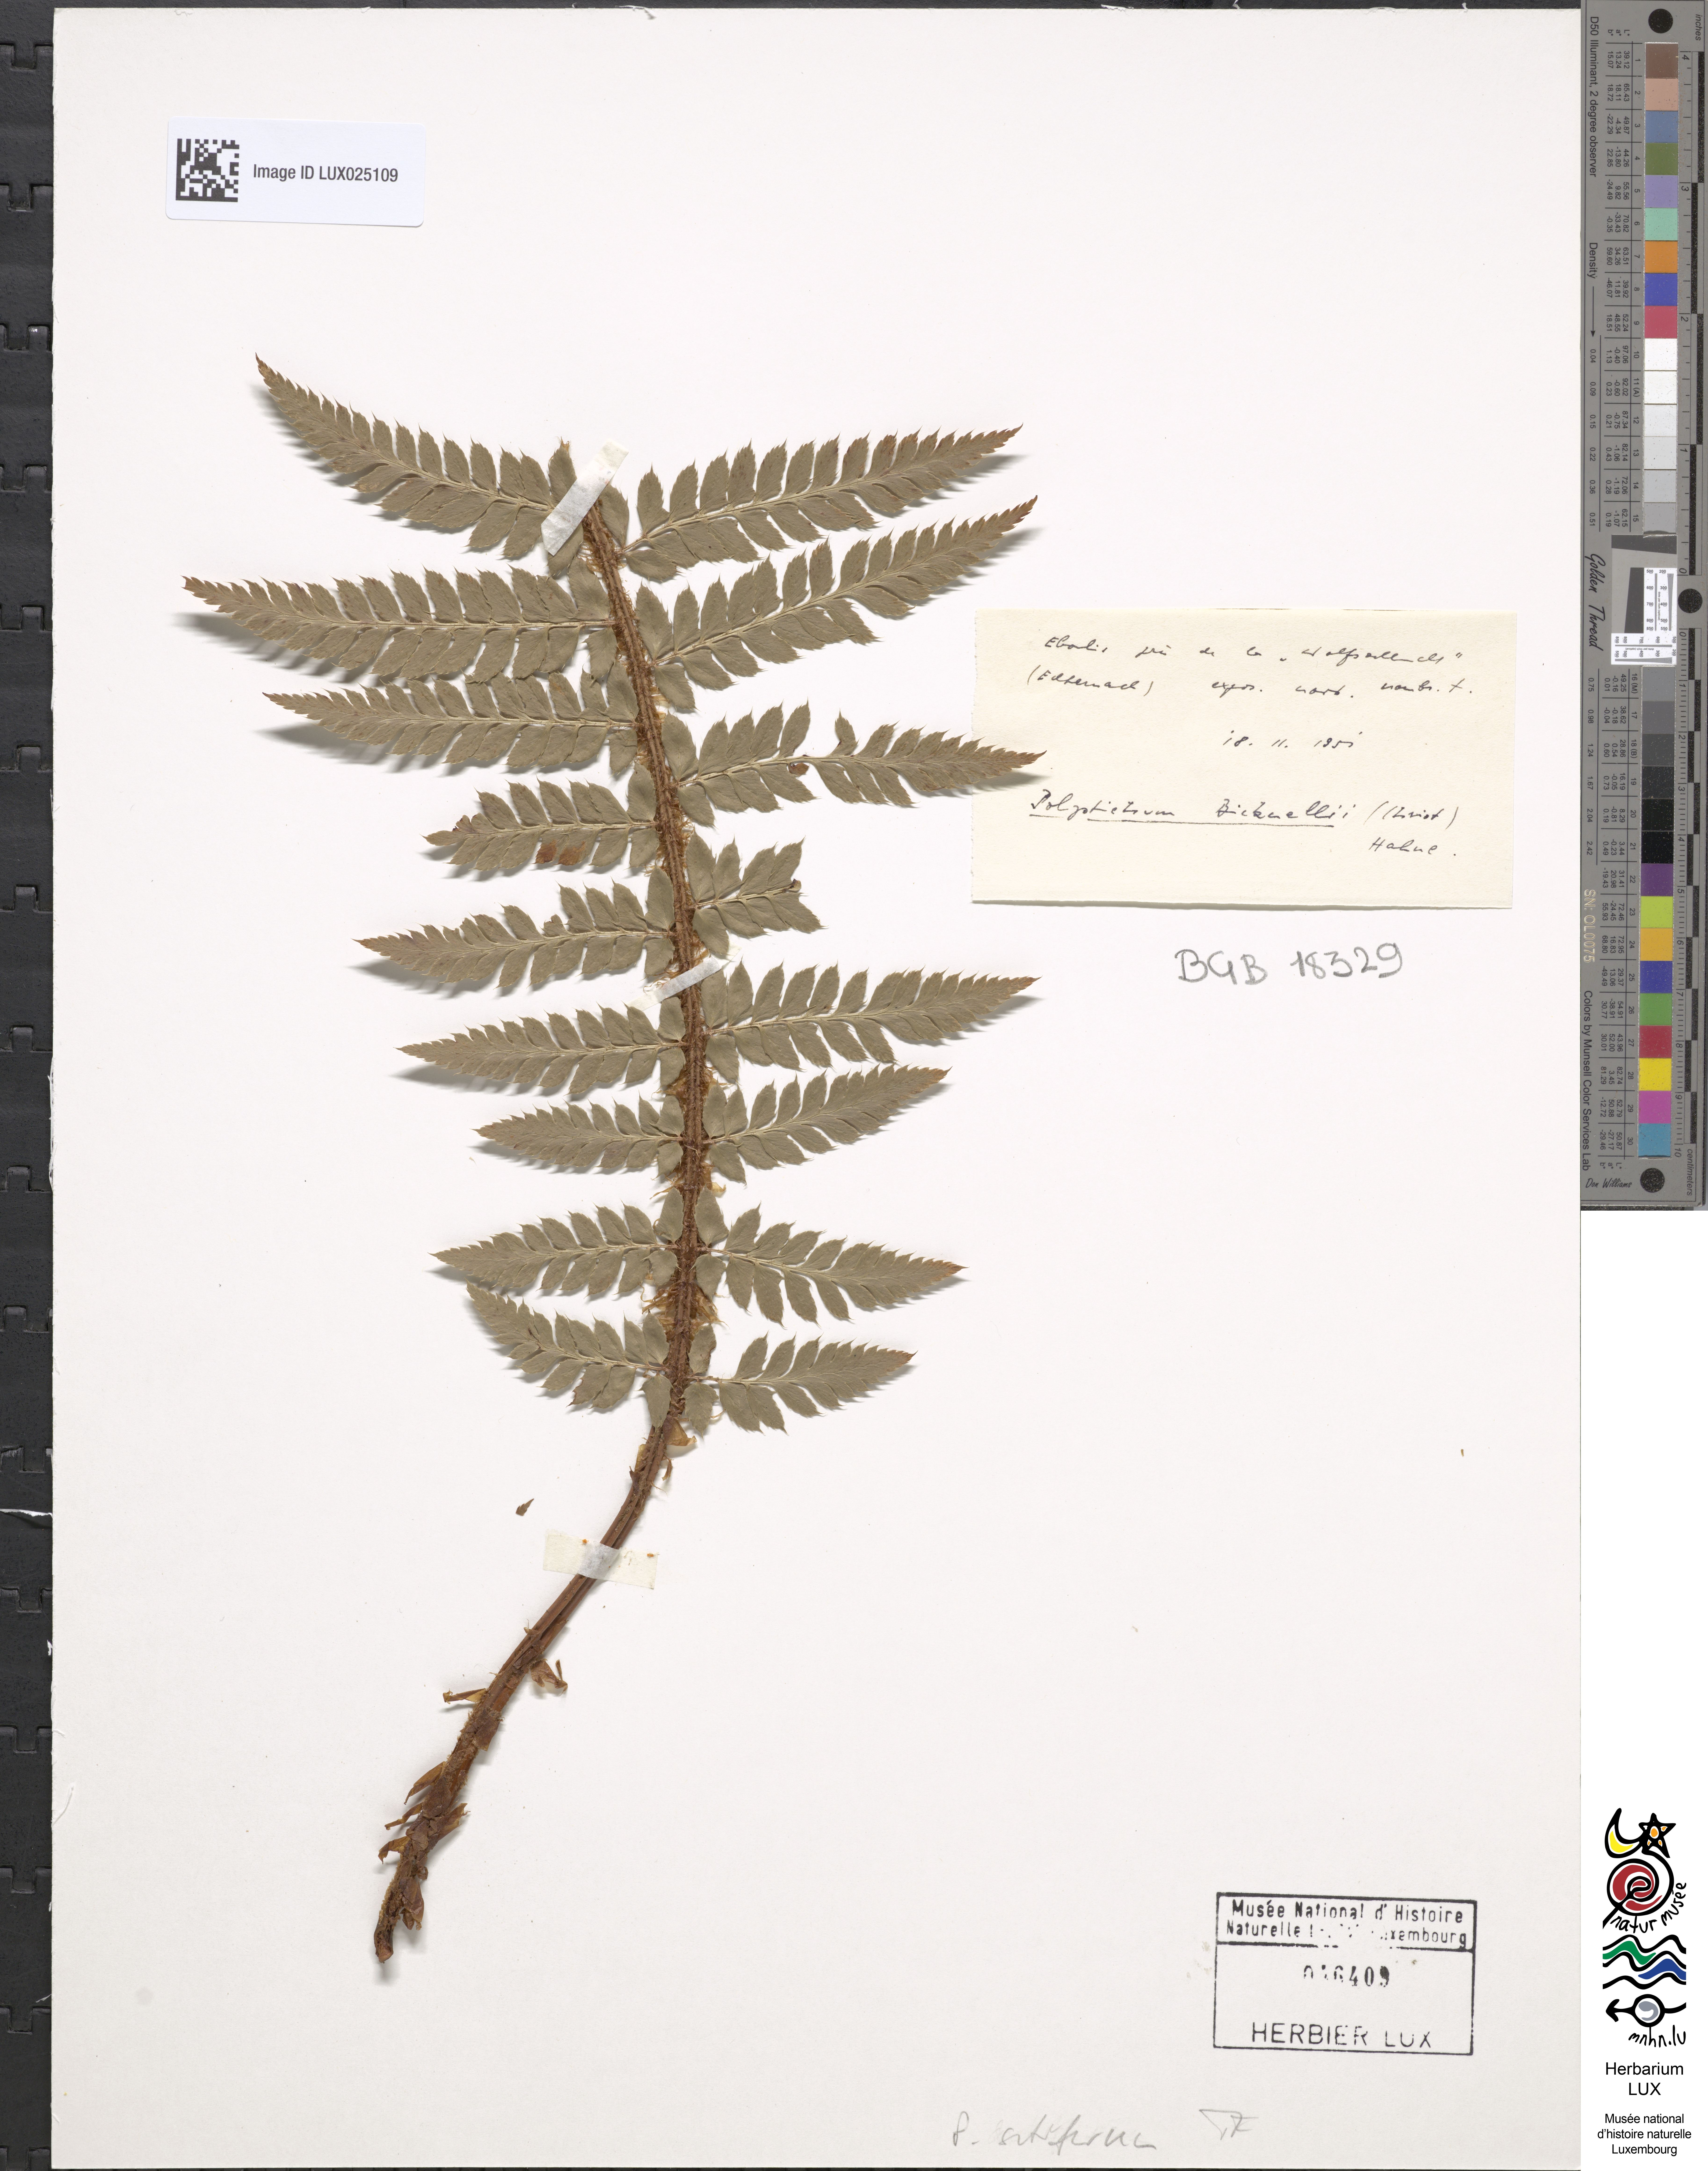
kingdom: Plantae
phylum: Tracheophyta
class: Polypodiopsida
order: Polypodiales
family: Dryopteridaceae
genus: Polystichum
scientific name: Polystichum setiferum
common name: Soft shield-fern
